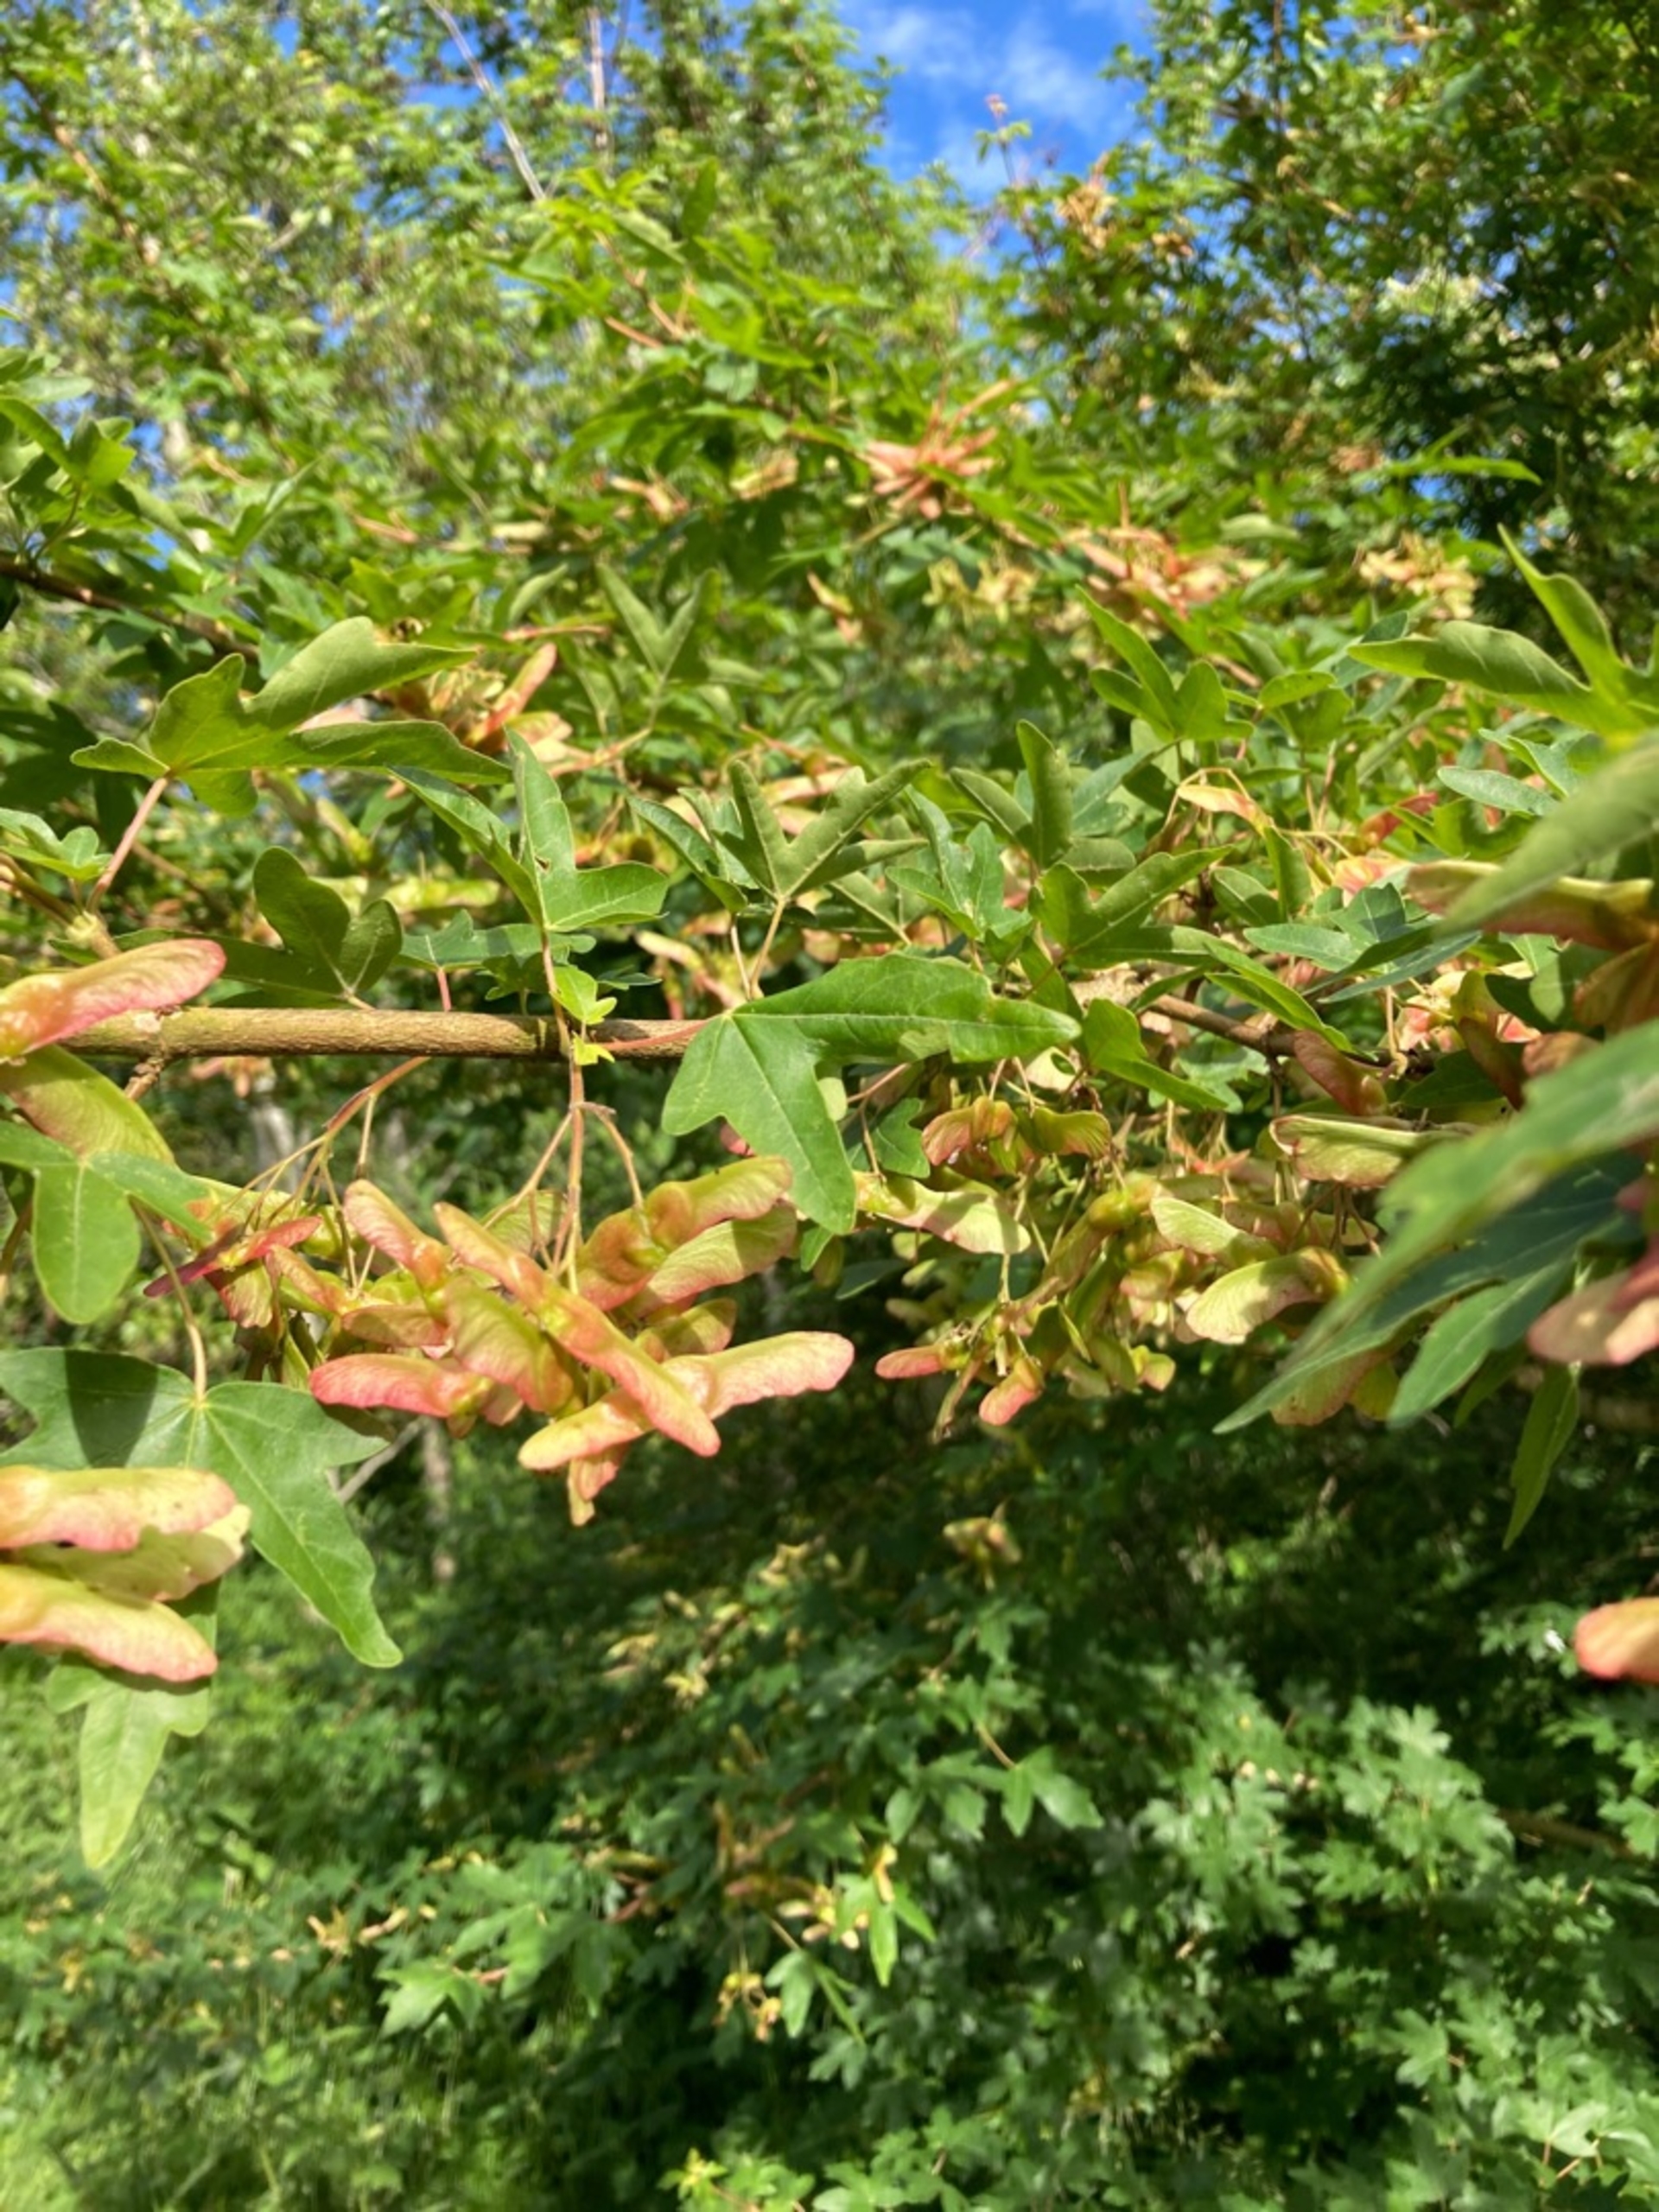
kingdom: Plantae
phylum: Tracheophyta
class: Magnoliopsida
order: Sapindales
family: Sapindaceae
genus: Acer
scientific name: Acer campestre
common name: Navr
